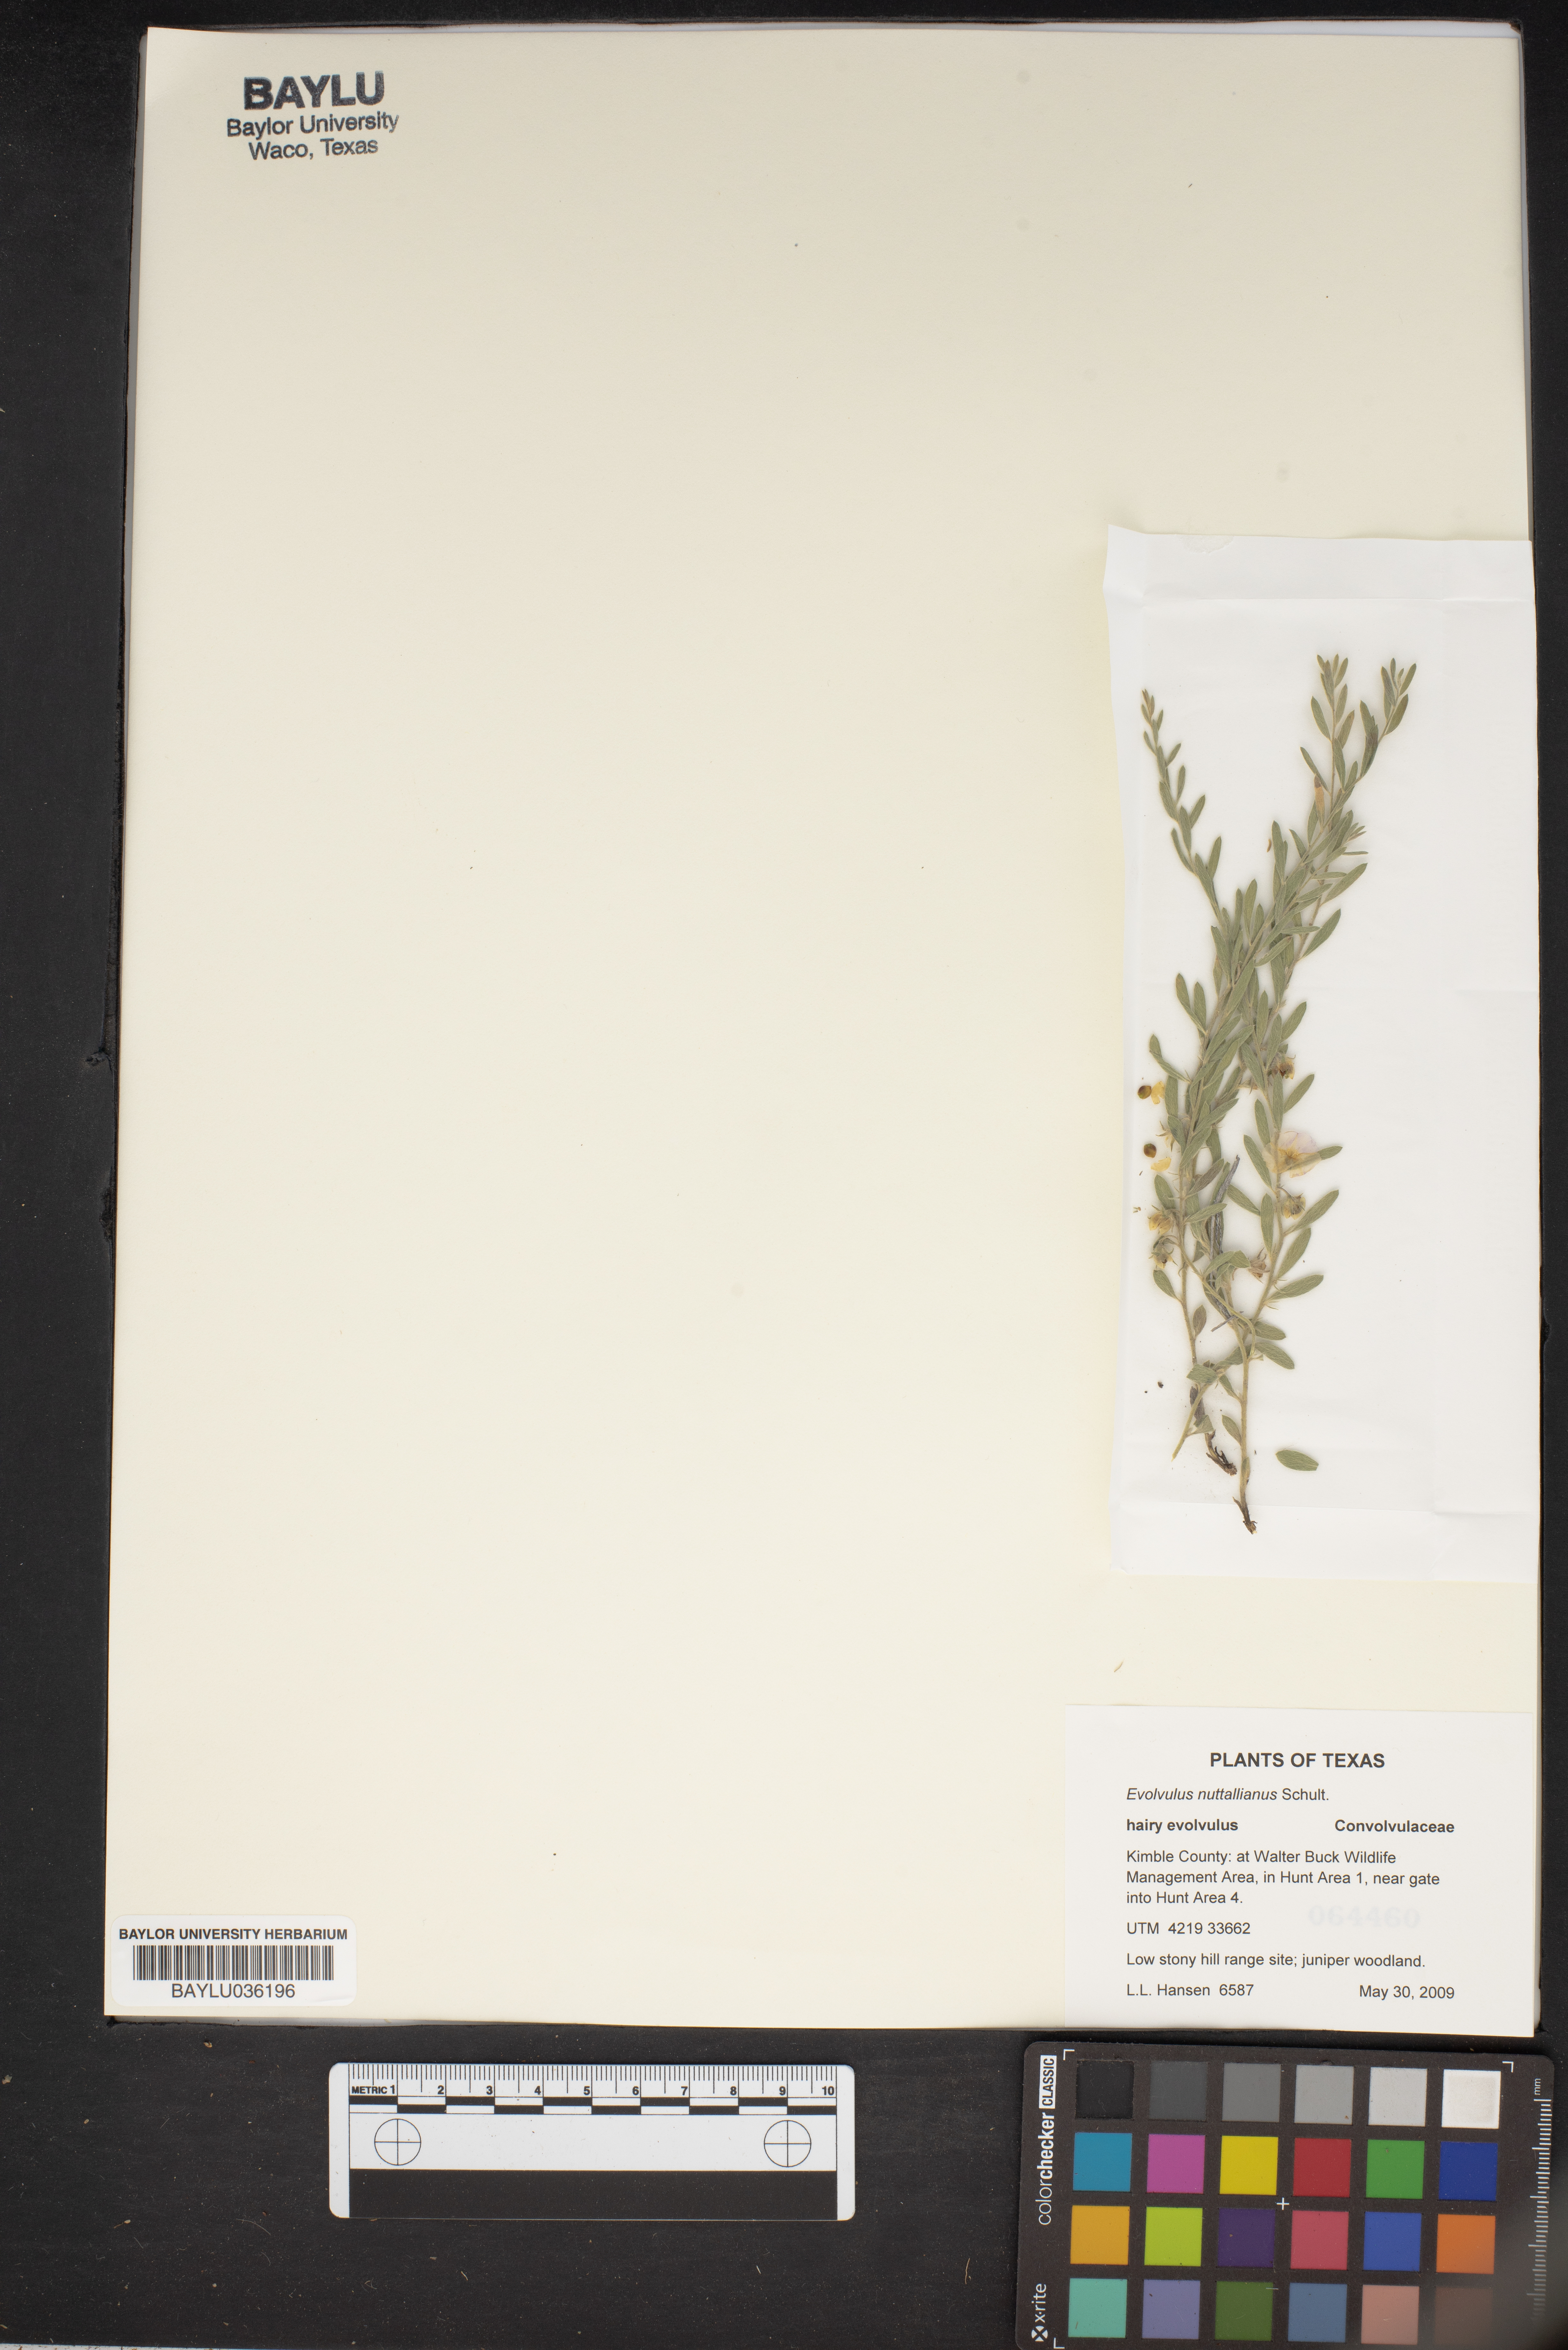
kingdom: Plantae
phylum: Tracheophyta
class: Magnoliopsida
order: Solanales
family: Convolvulaceae
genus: Evolvulus
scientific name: Evolvulus nuttallianus
